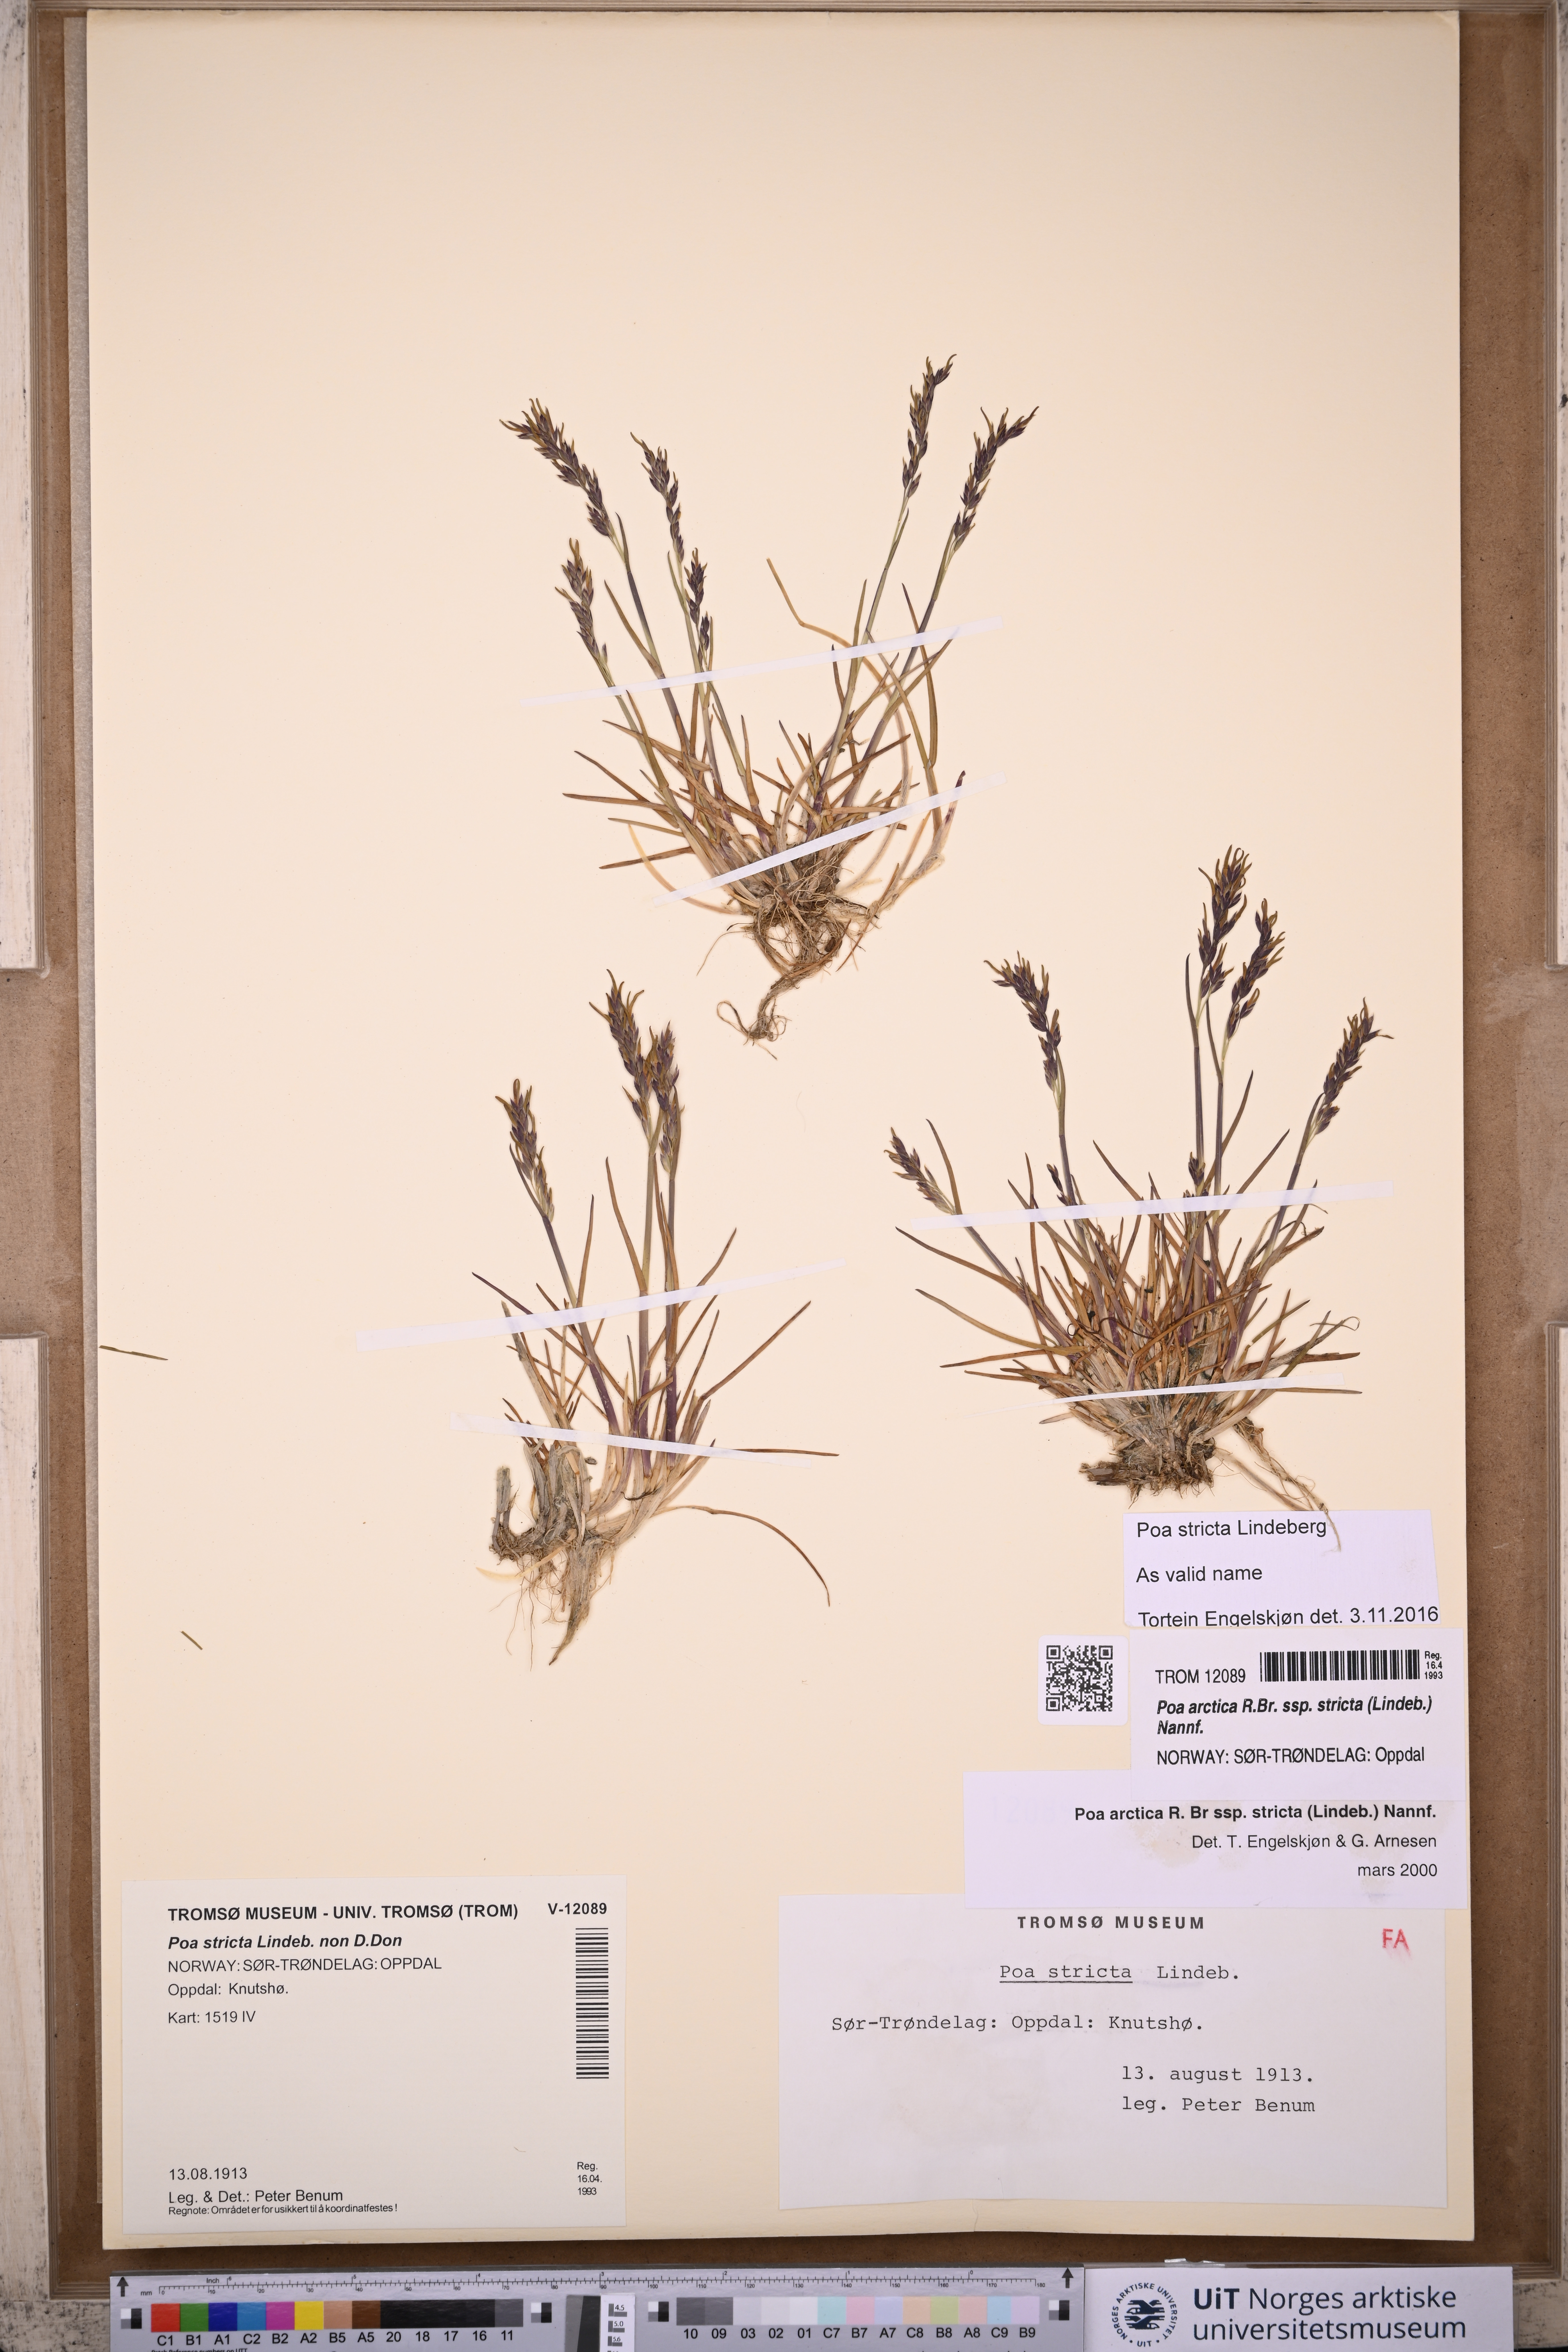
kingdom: Plantae
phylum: Tracheophyta
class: Liliopsida
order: Poales
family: Poaceae
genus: Poa
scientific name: Poa lindebergii
